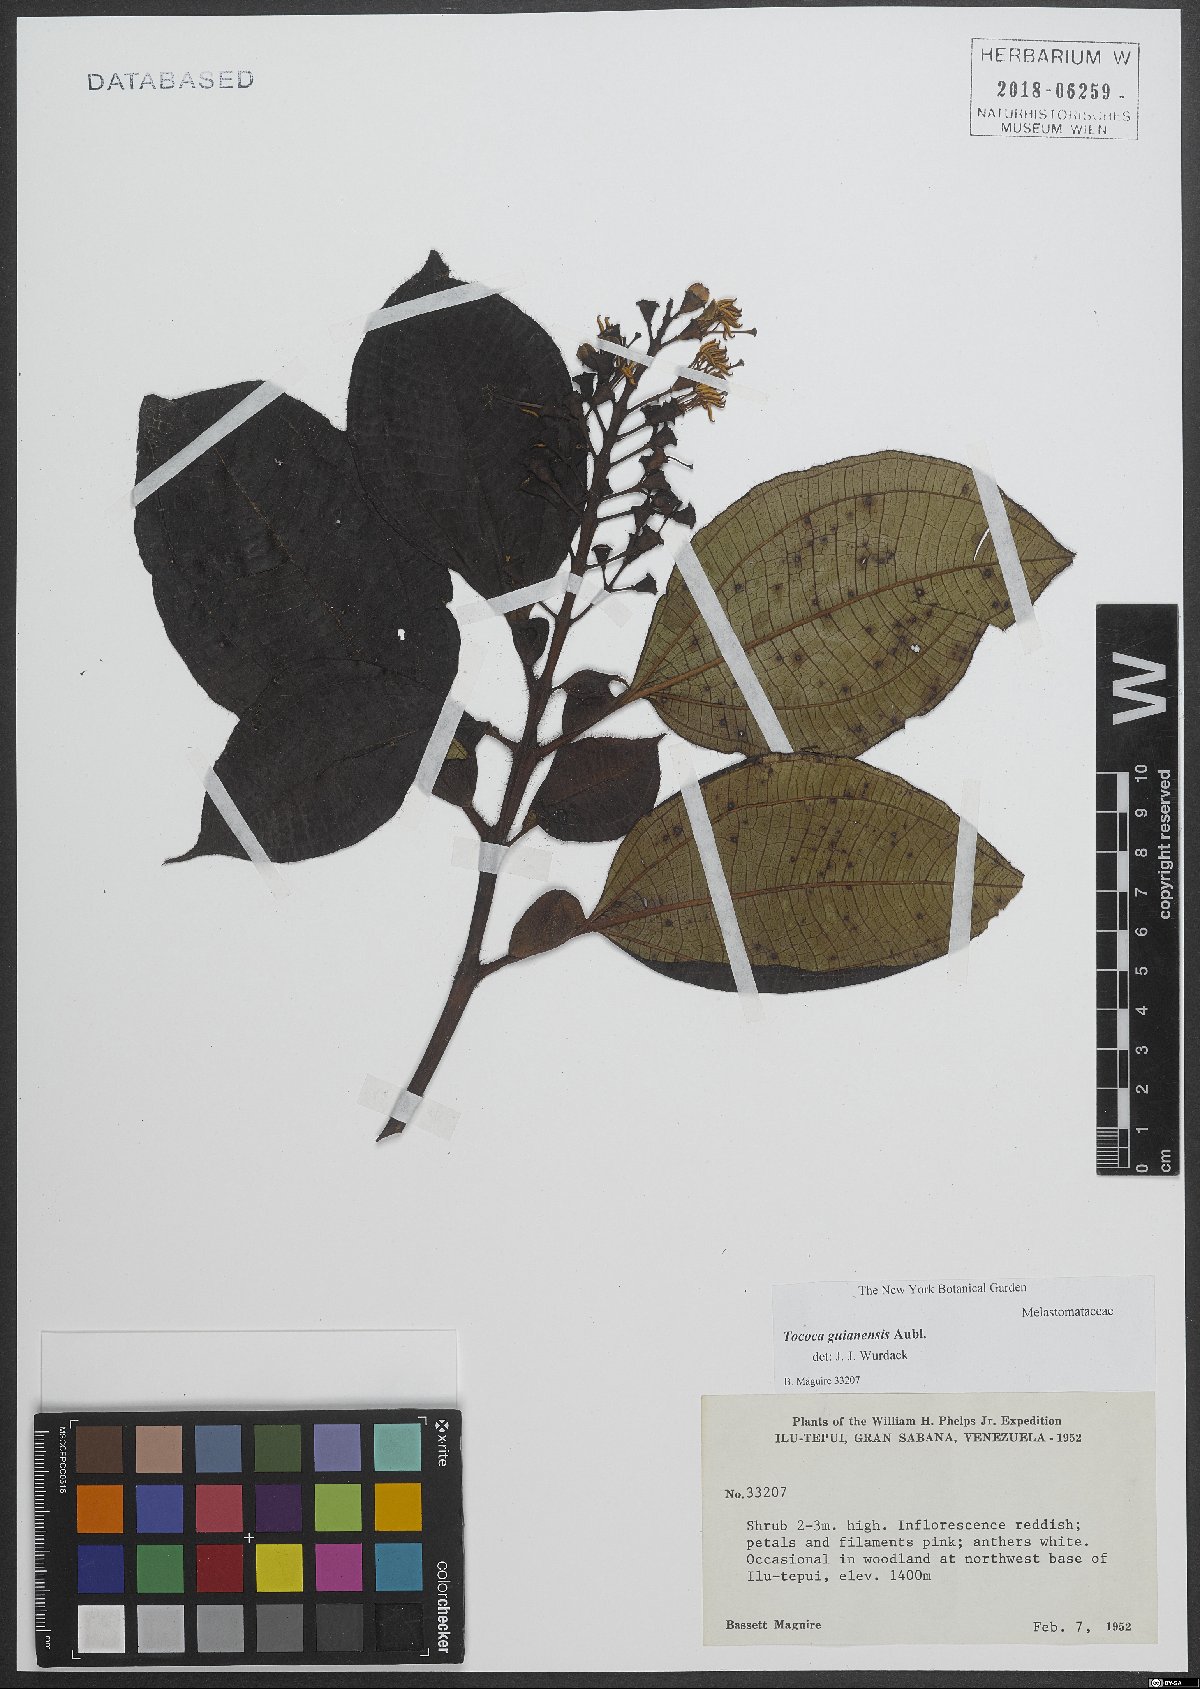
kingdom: Plantae
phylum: Tracheophyta
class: Magnoliopsida
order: Myrtales
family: Melastomataceae
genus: Miconia
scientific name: Miconia tococa
